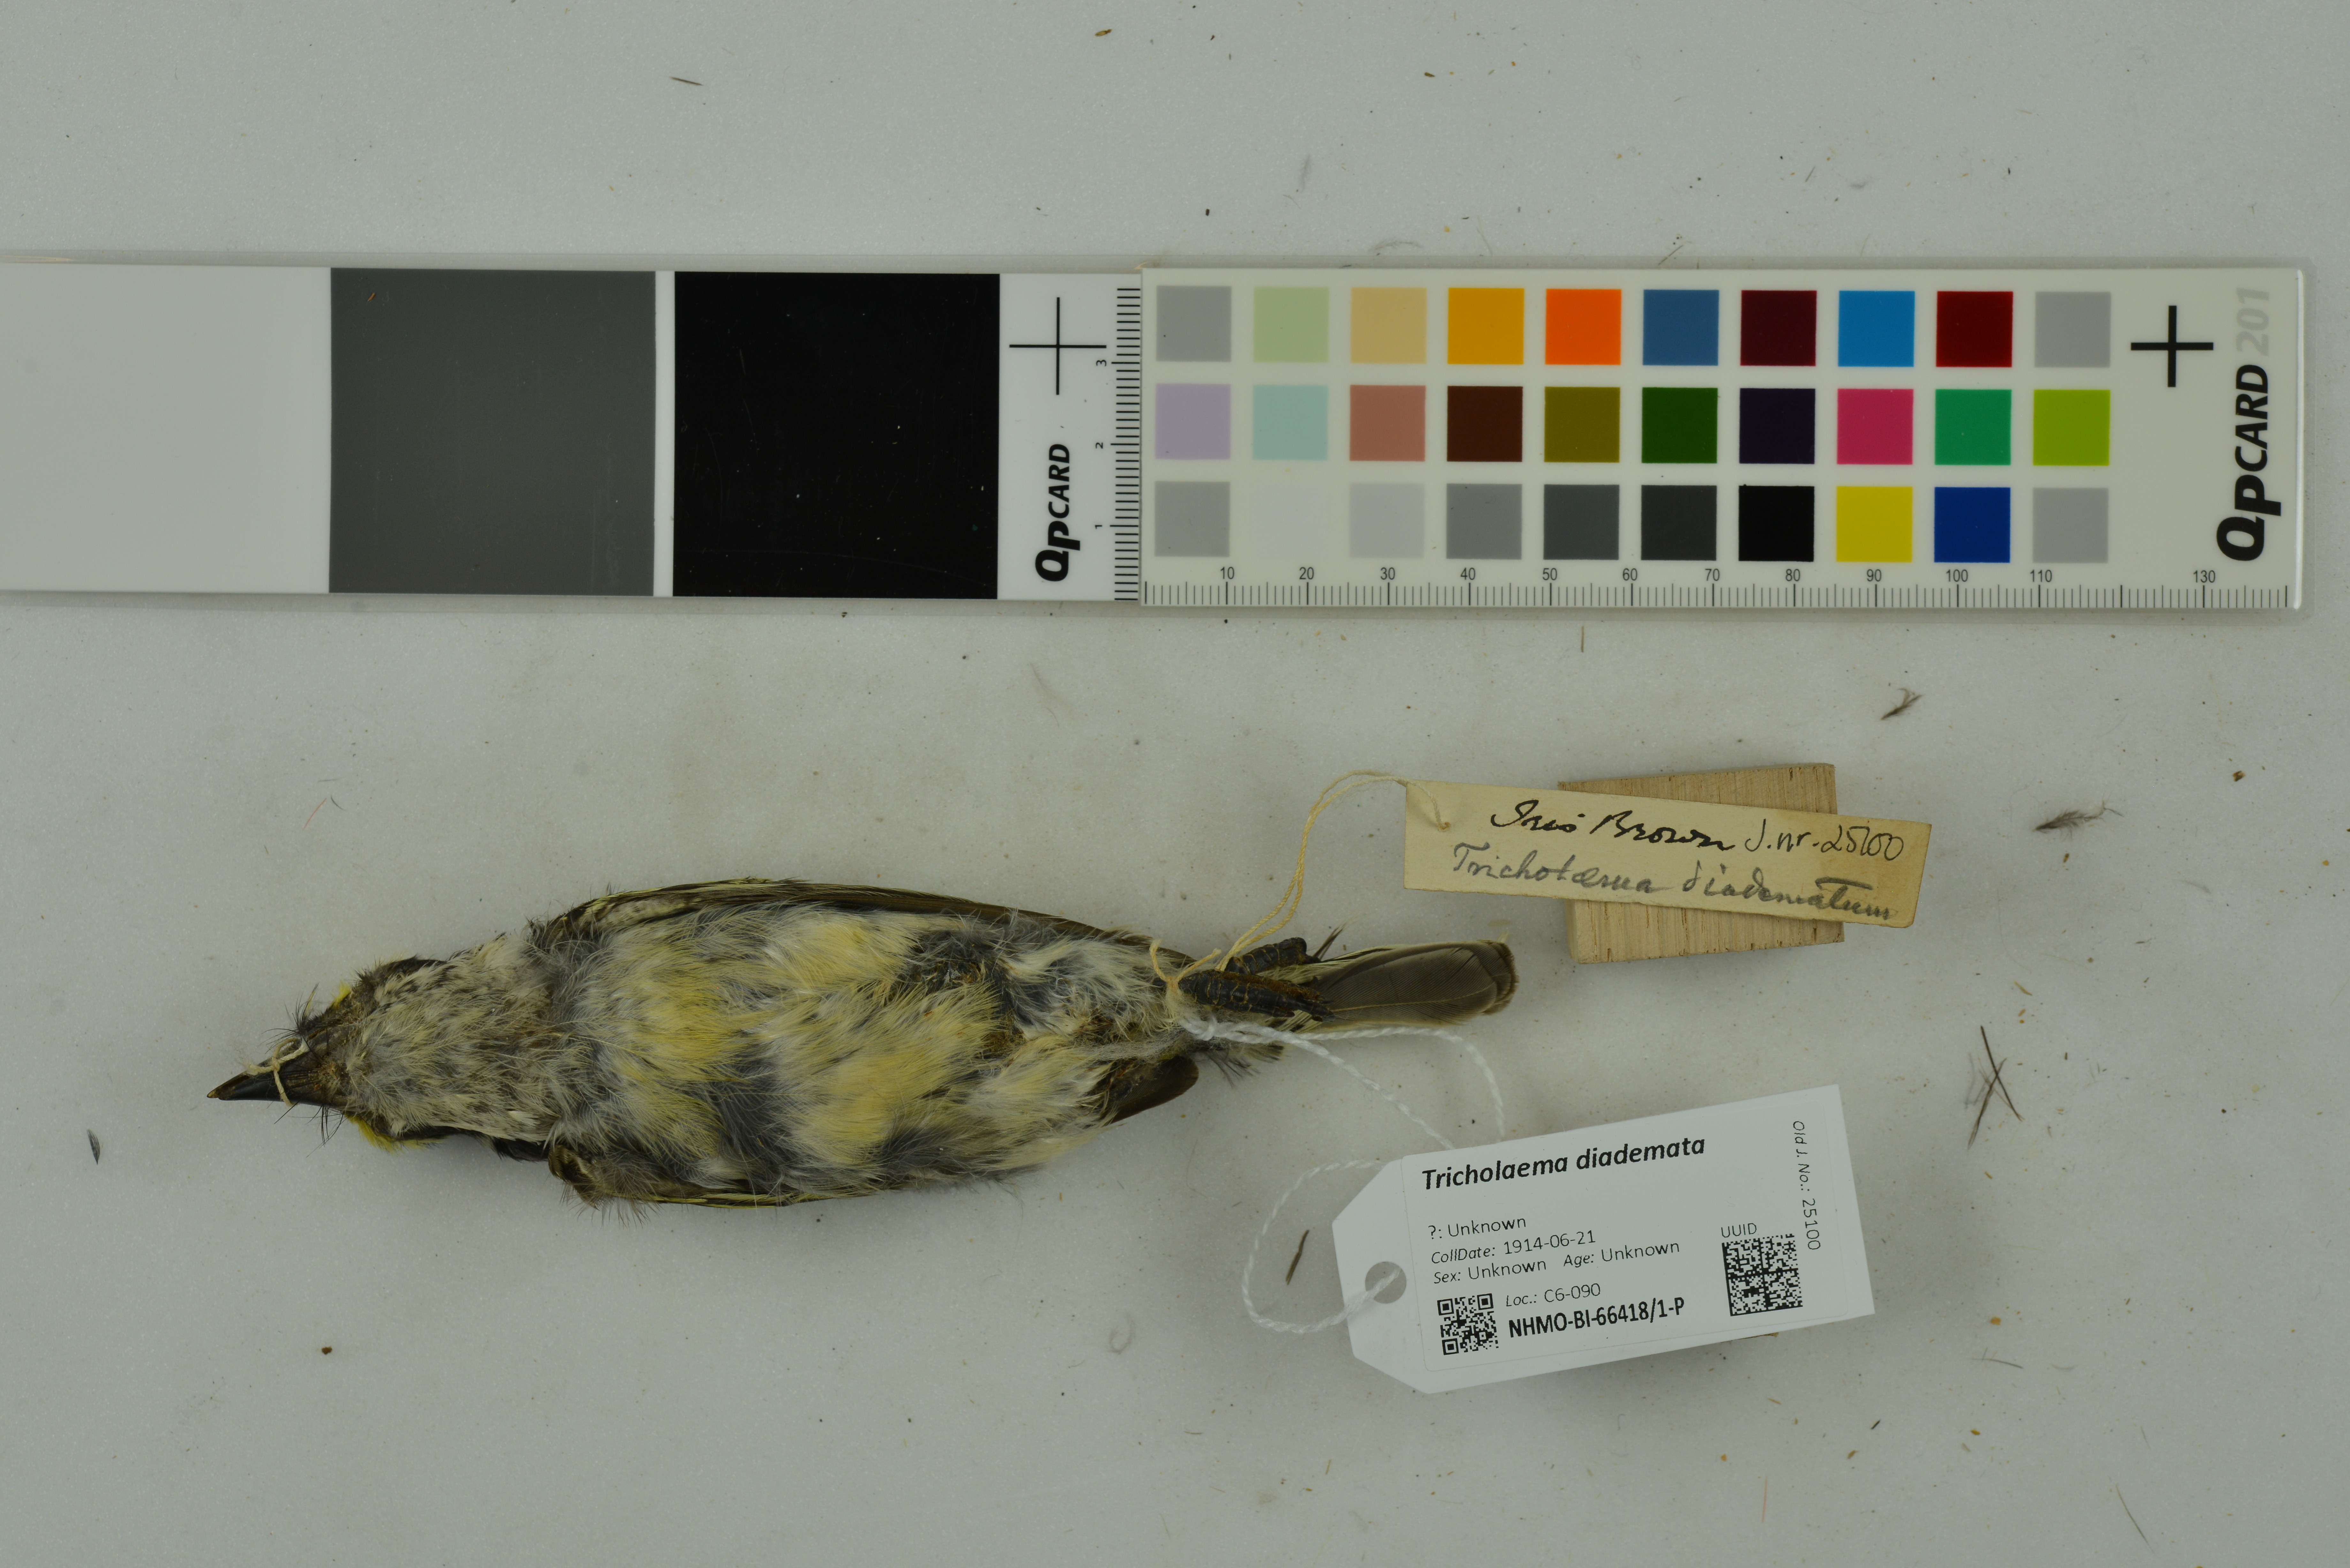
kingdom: Animalia
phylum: Chordata
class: Aves
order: Piciformes
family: Lybiidae
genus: Tricholaema
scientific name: Tricholaema diademata
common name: Red-fronted barbet
